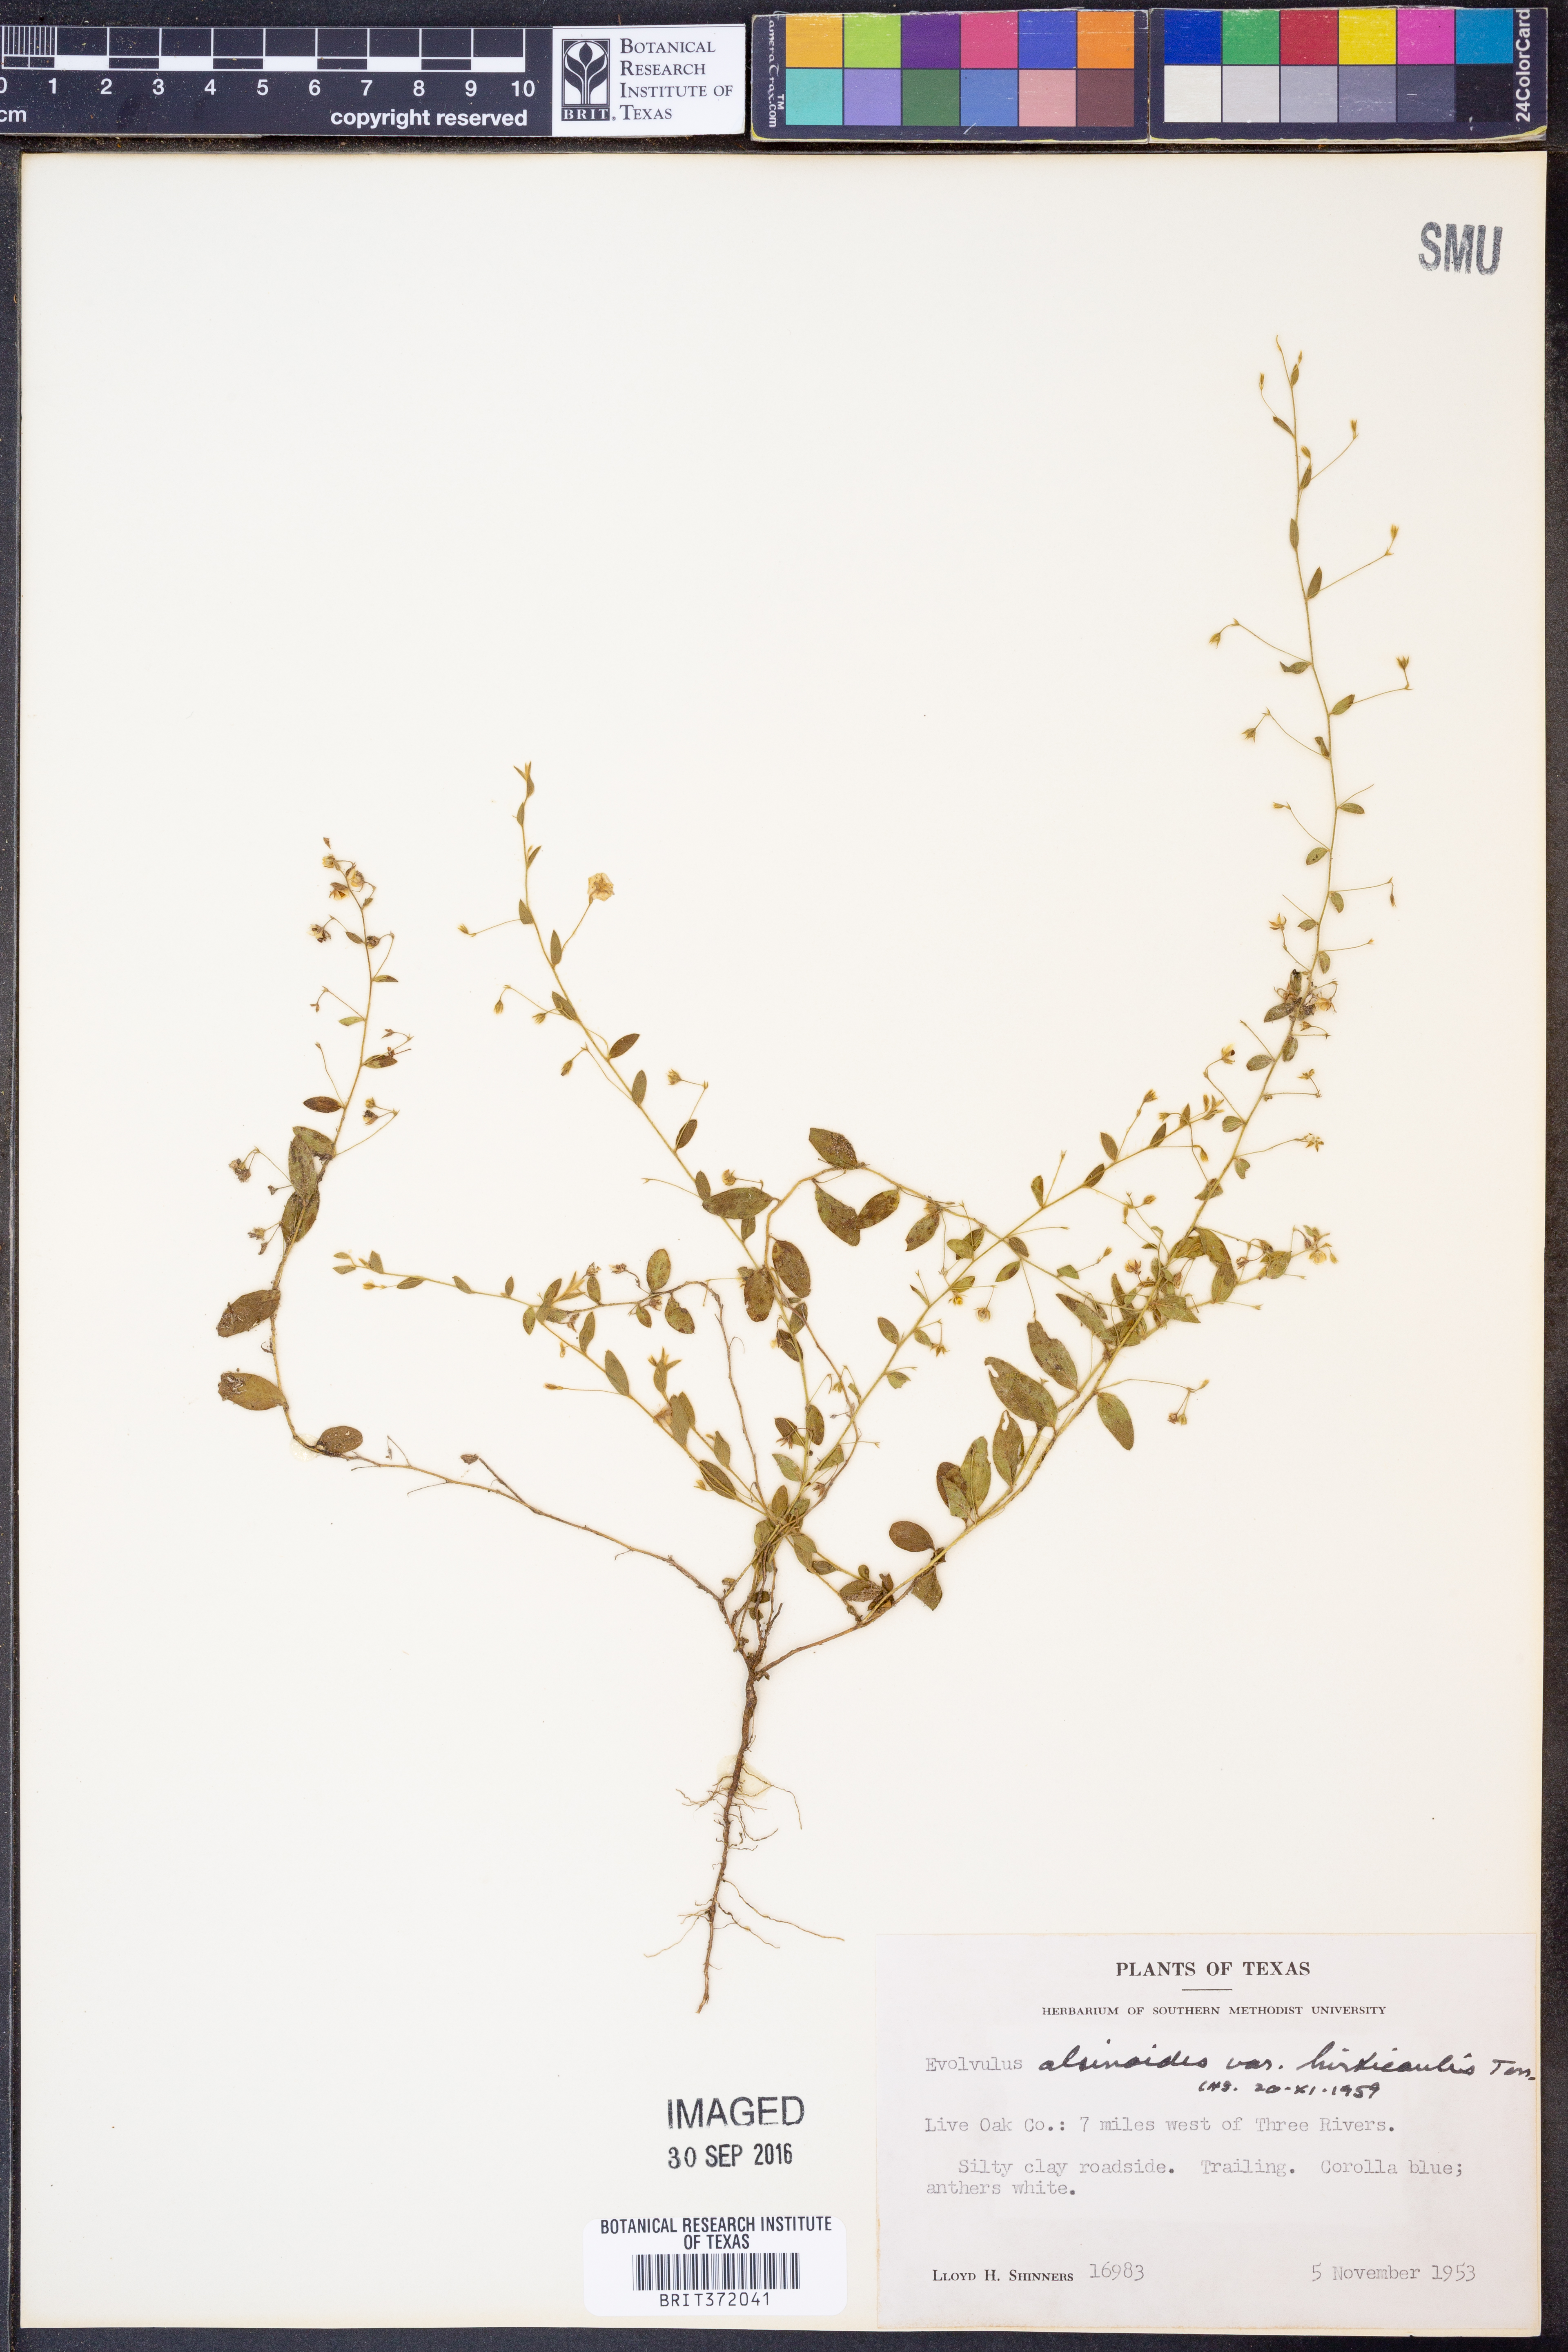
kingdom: Plantae
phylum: Tracheophyta
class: Magnoliopsida
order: Solanales
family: Convolvulaceae
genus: Evolvulus
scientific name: Evolvulus alsinoides
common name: Slender dwarf morning-glory
